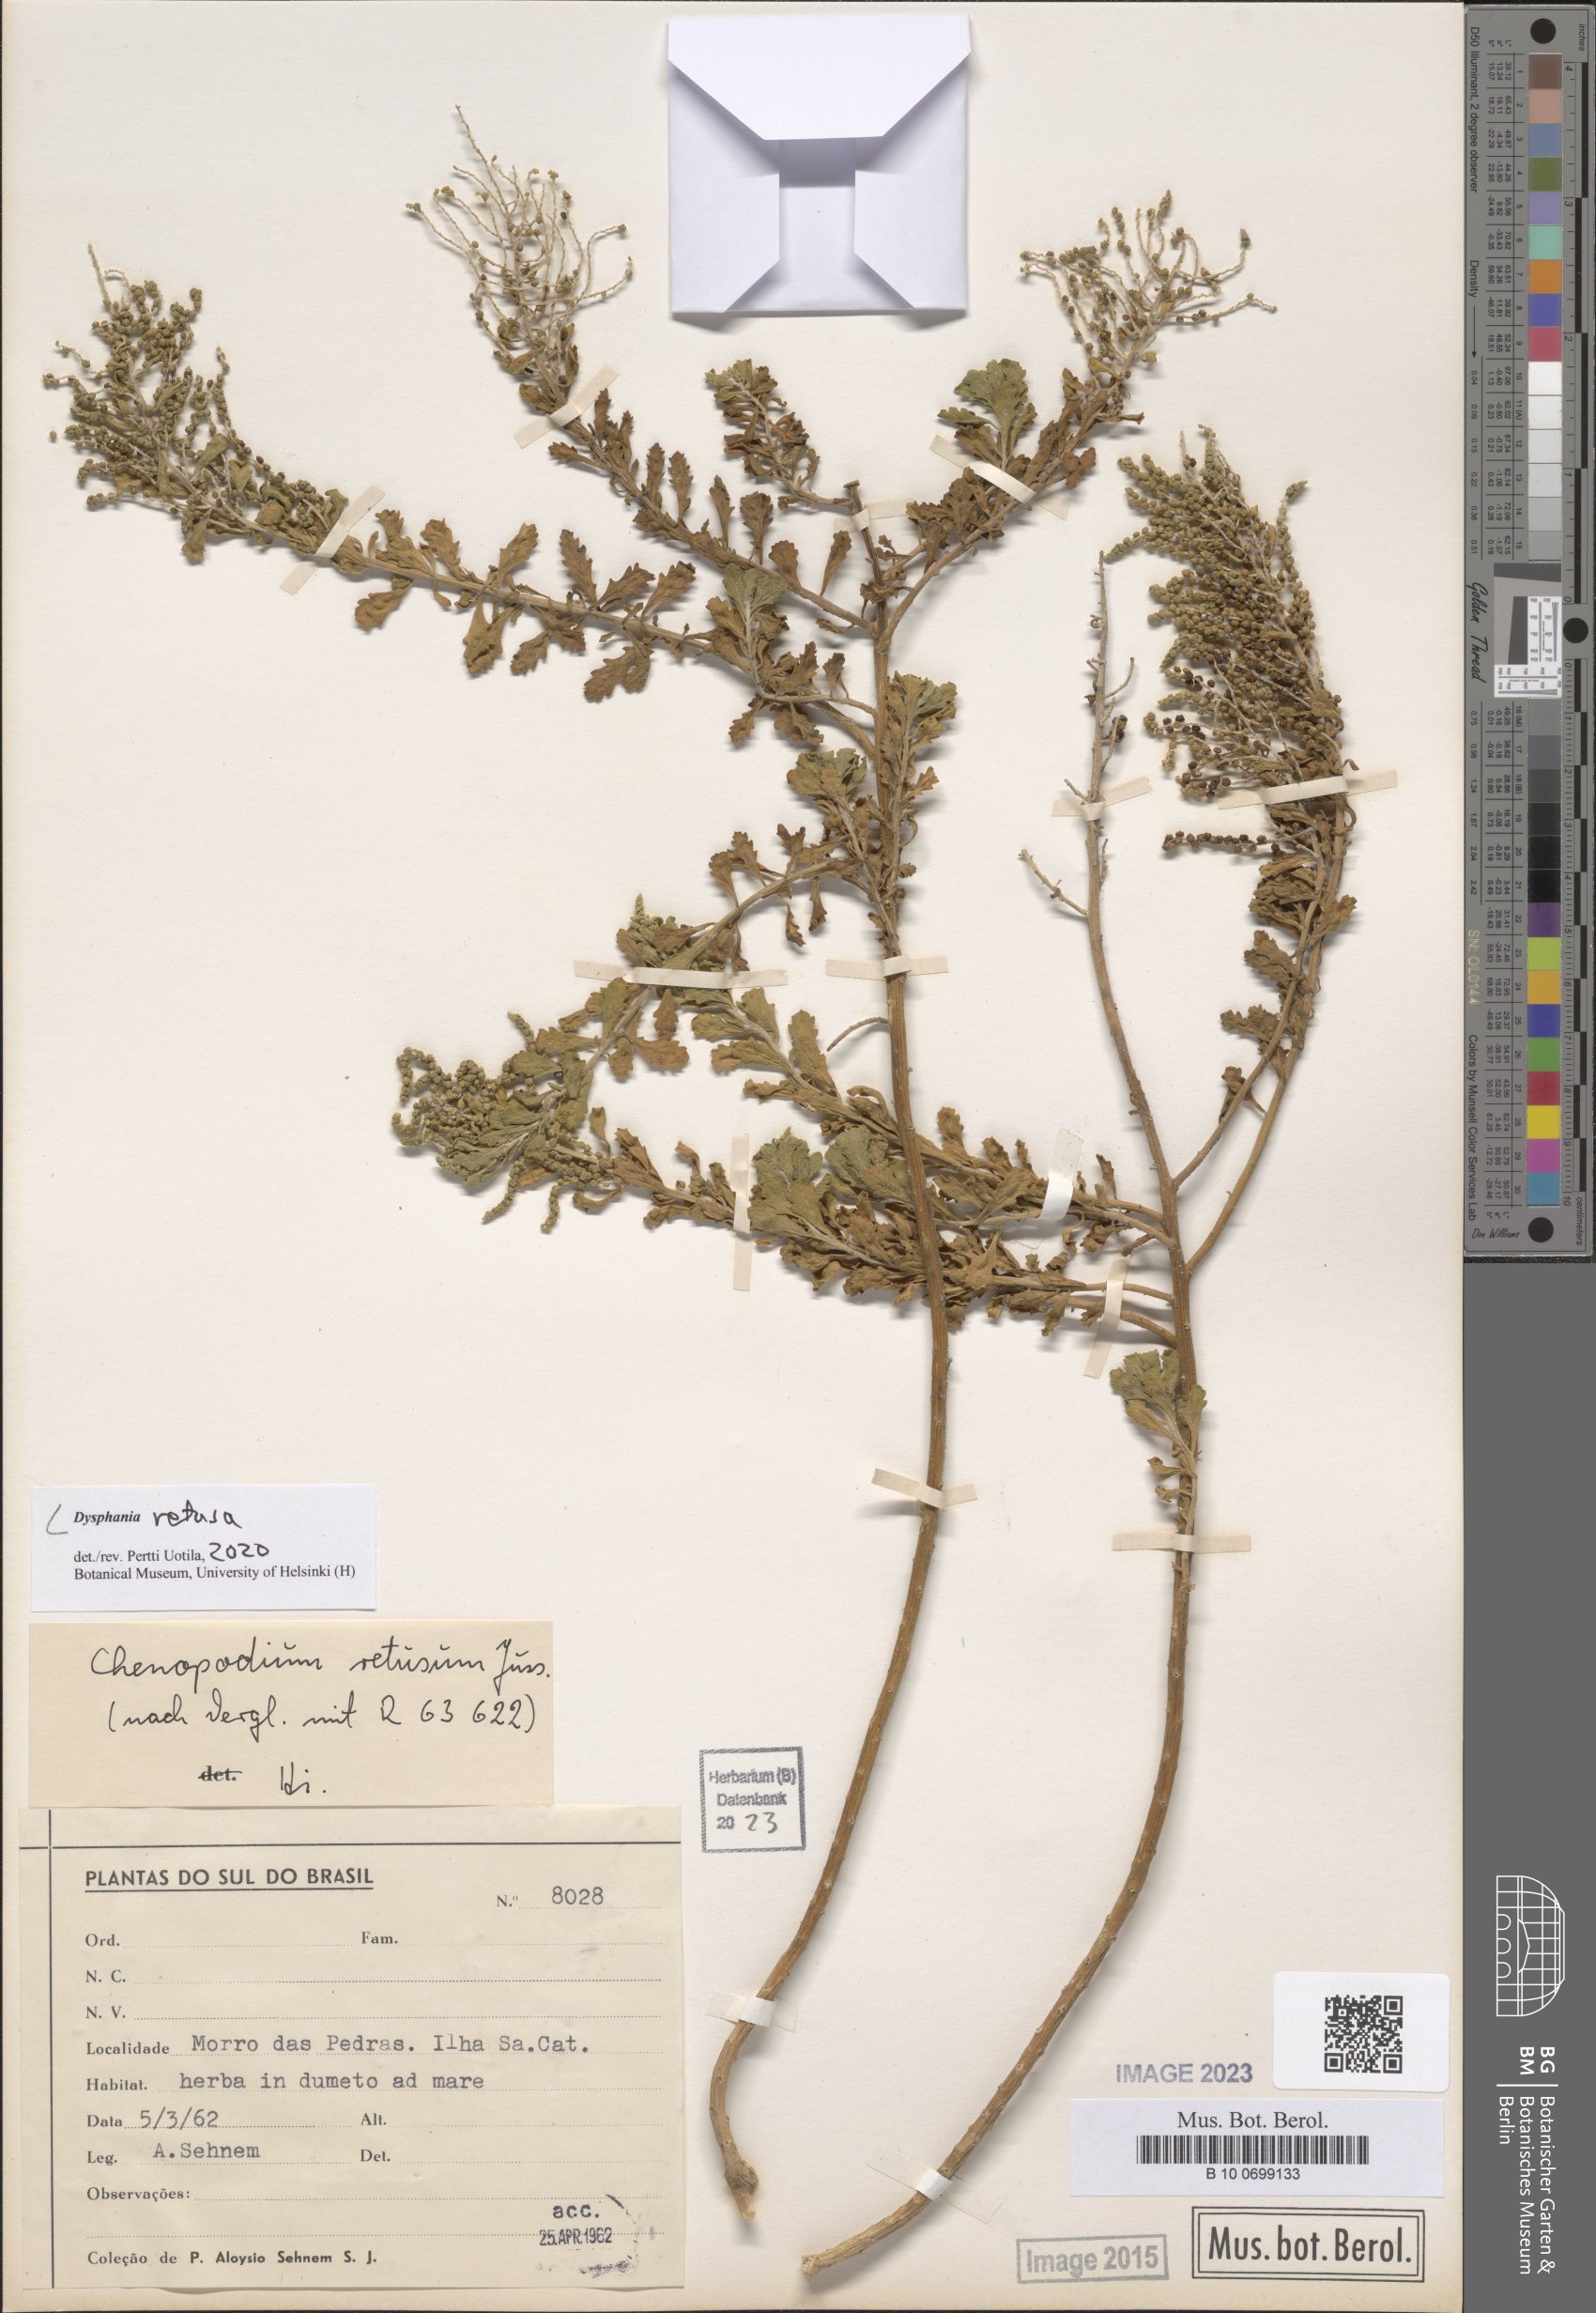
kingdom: Plantae
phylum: Tracheophyta
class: Magnoliopsida
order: Caryophyllales
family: Amaranthaceae
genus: Dysphania
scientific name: Dysphania retusa
